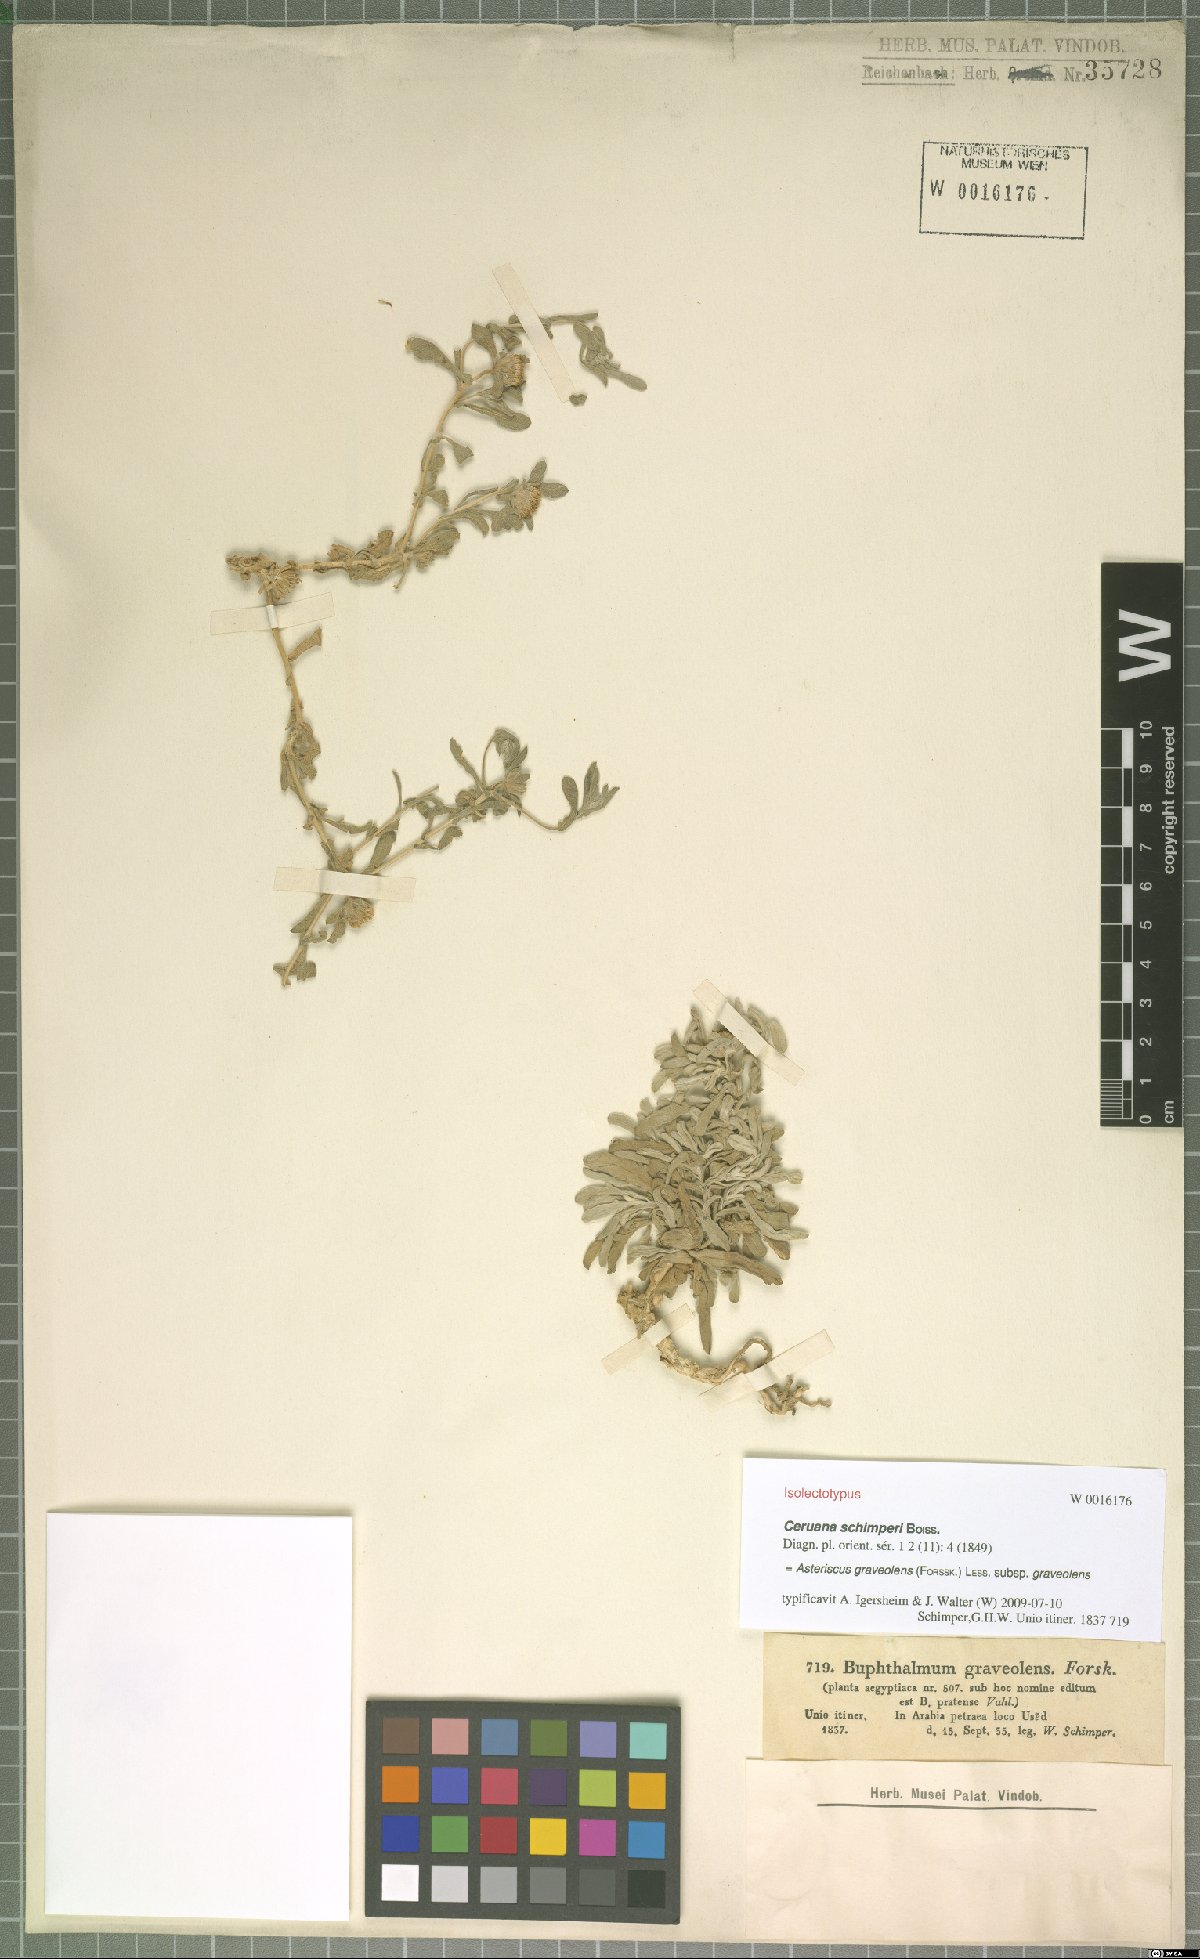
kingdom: Plantae
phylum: Tracheophyta
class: Magnoliopsida
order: Asterales
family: Asteraceae
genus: Asteriscus
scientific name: Asteriscus graveolens
